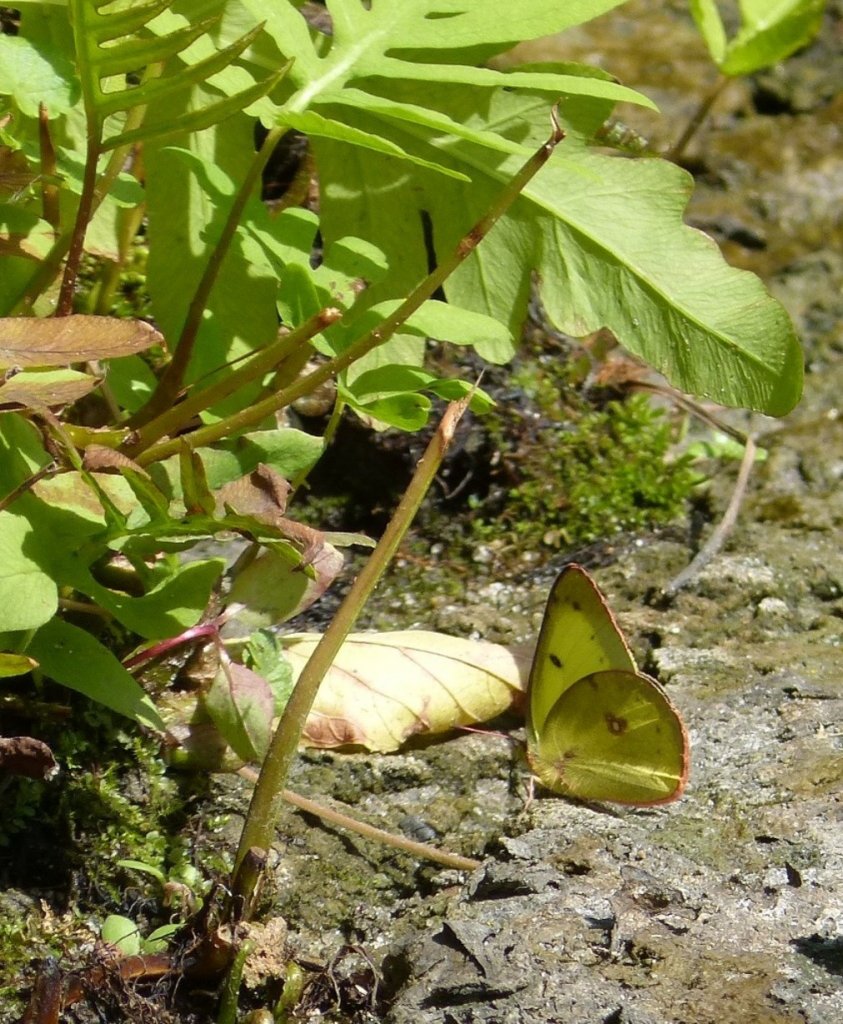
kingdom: Animalia
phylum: Arthropoda
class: Insecta
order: Lepidoptera
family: Pieridae
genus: Colias
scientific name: Colias philodice
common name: Clouded Sulphur
